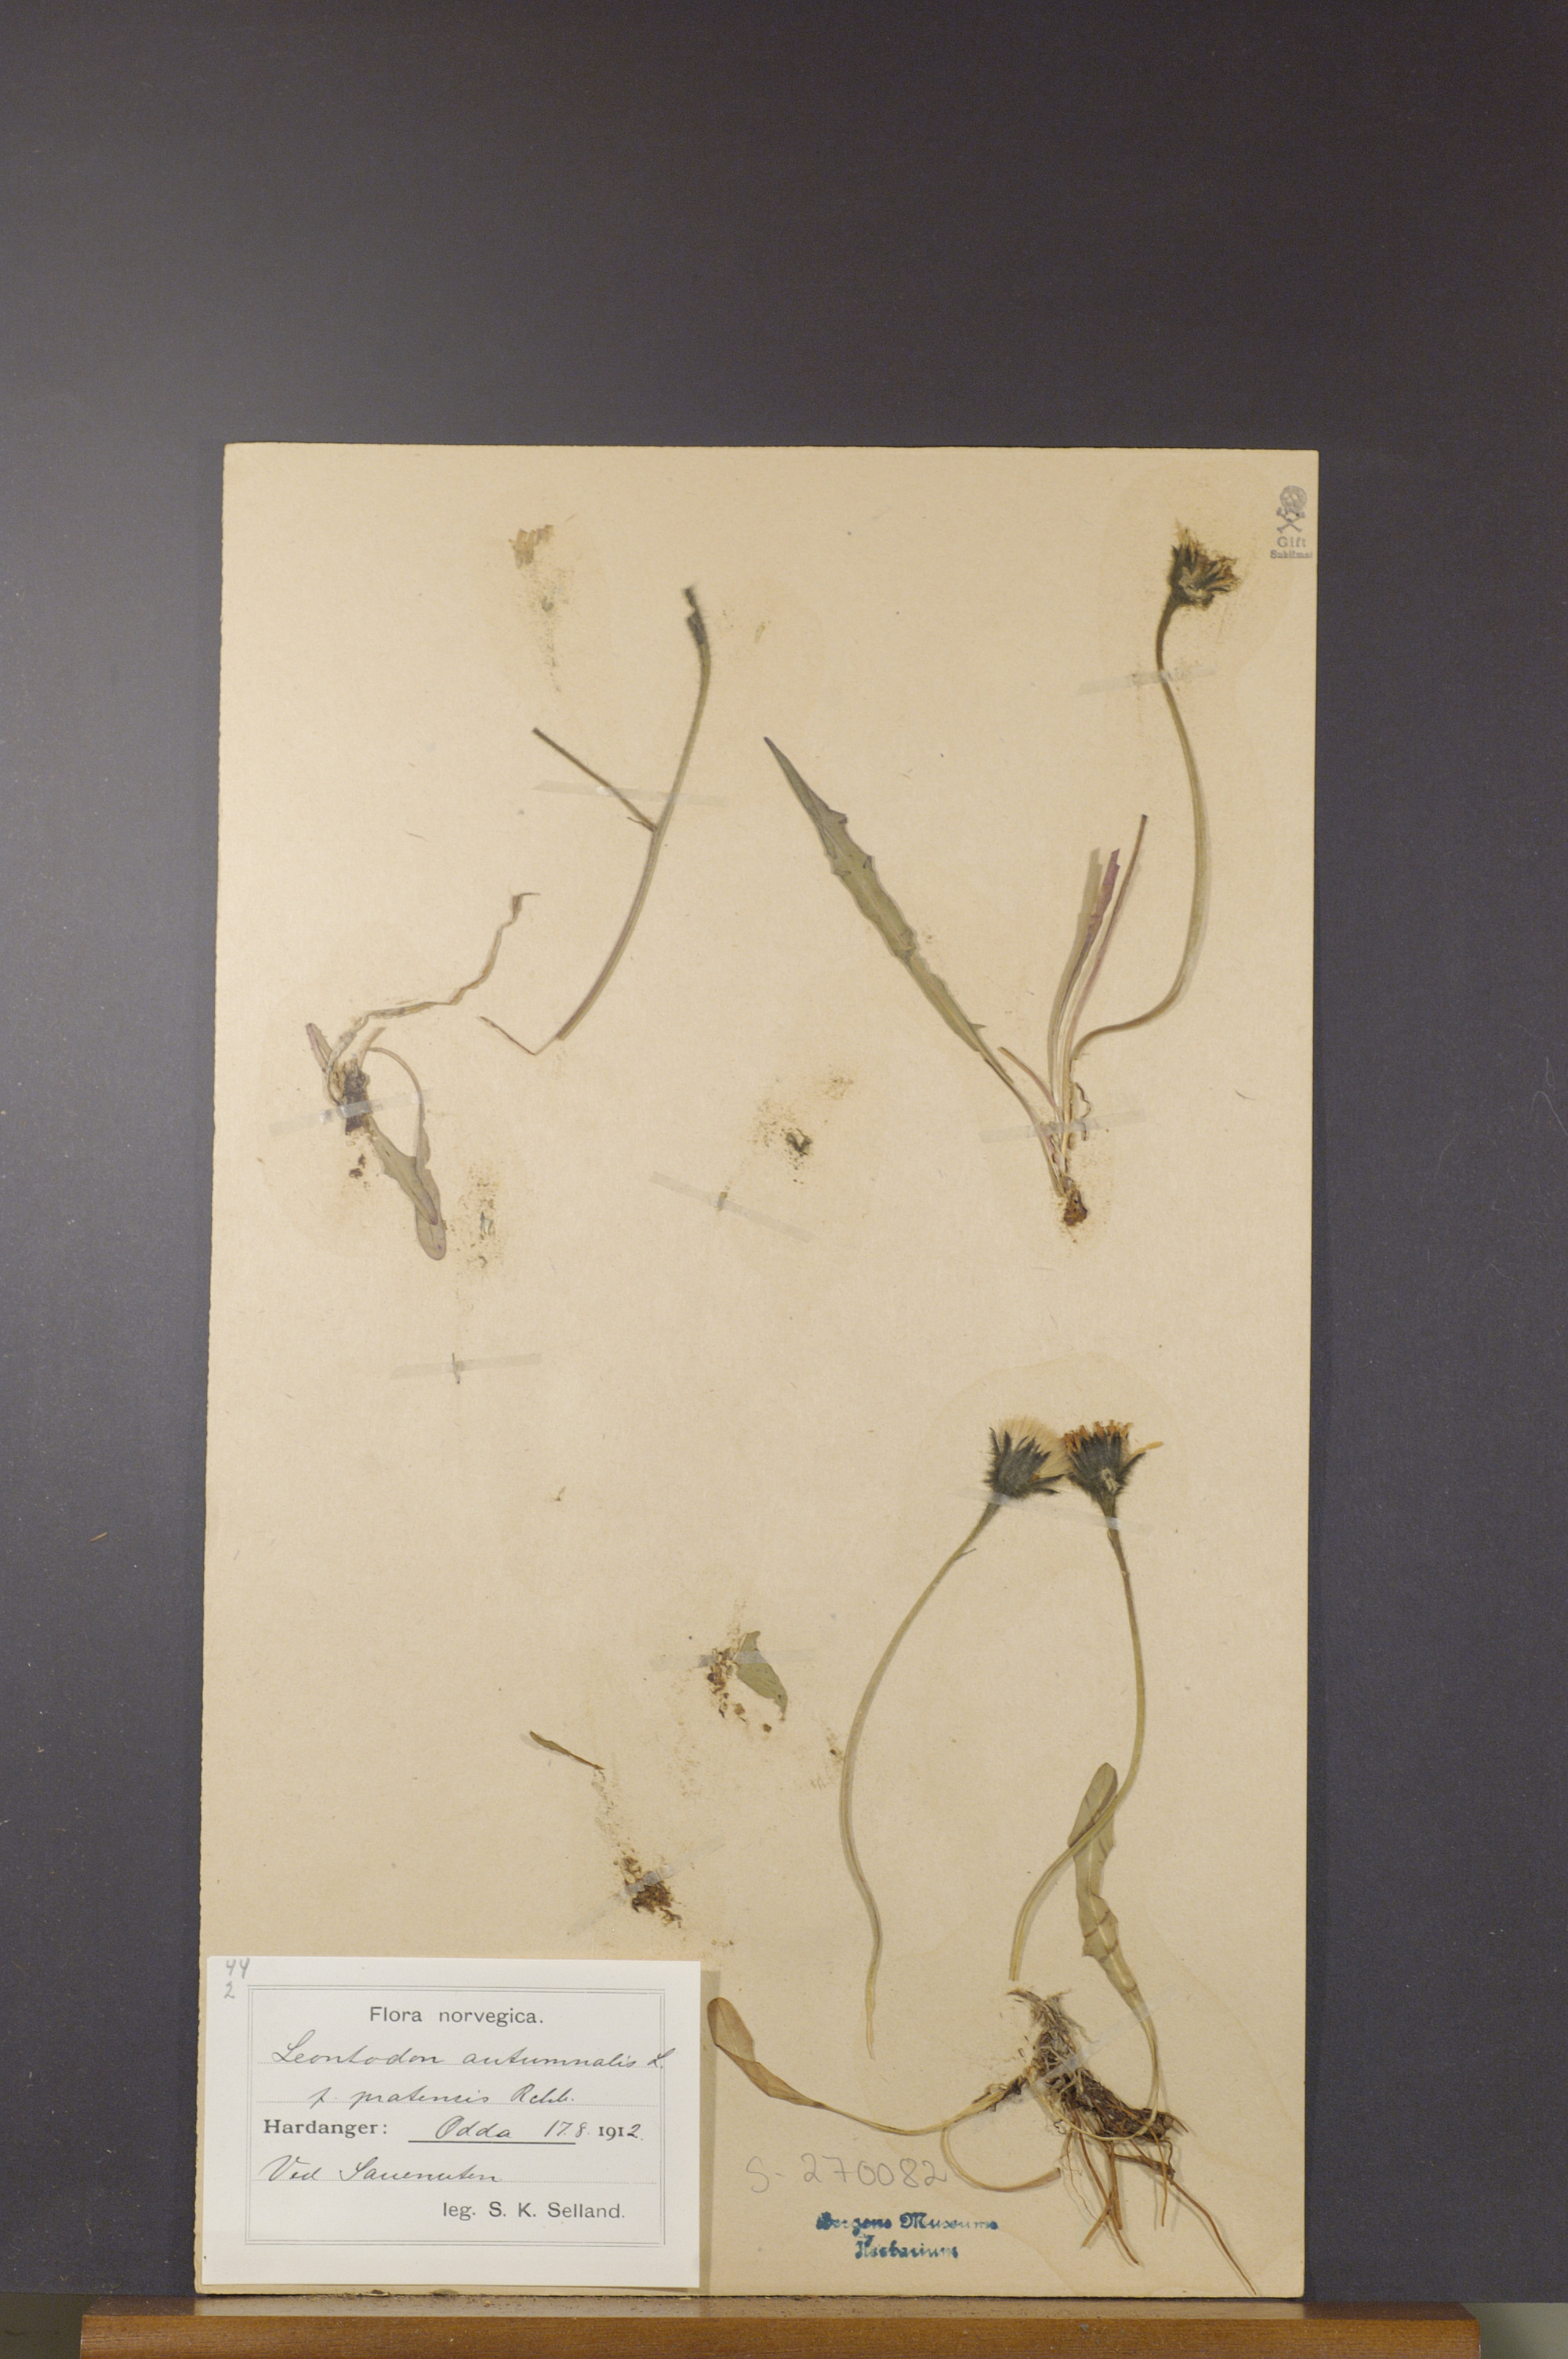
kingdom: Plantae
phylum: Tracheophyta
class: Magnoliopsida
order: Asterales
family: Asteraceae
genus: Scorzoneroides
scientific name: Scorzoneroides autumnalis
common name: Autumn hawkbit
